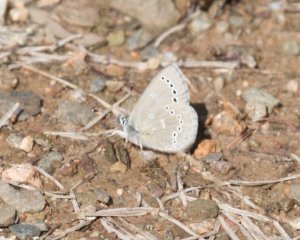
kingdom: Animalia
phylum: Arthropoda
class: Insecta
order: Lepidoptera
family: Lycaenidae
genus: Glaucopsyche
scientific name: Glaucopsyche lygdamus
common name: Silvery Blue
